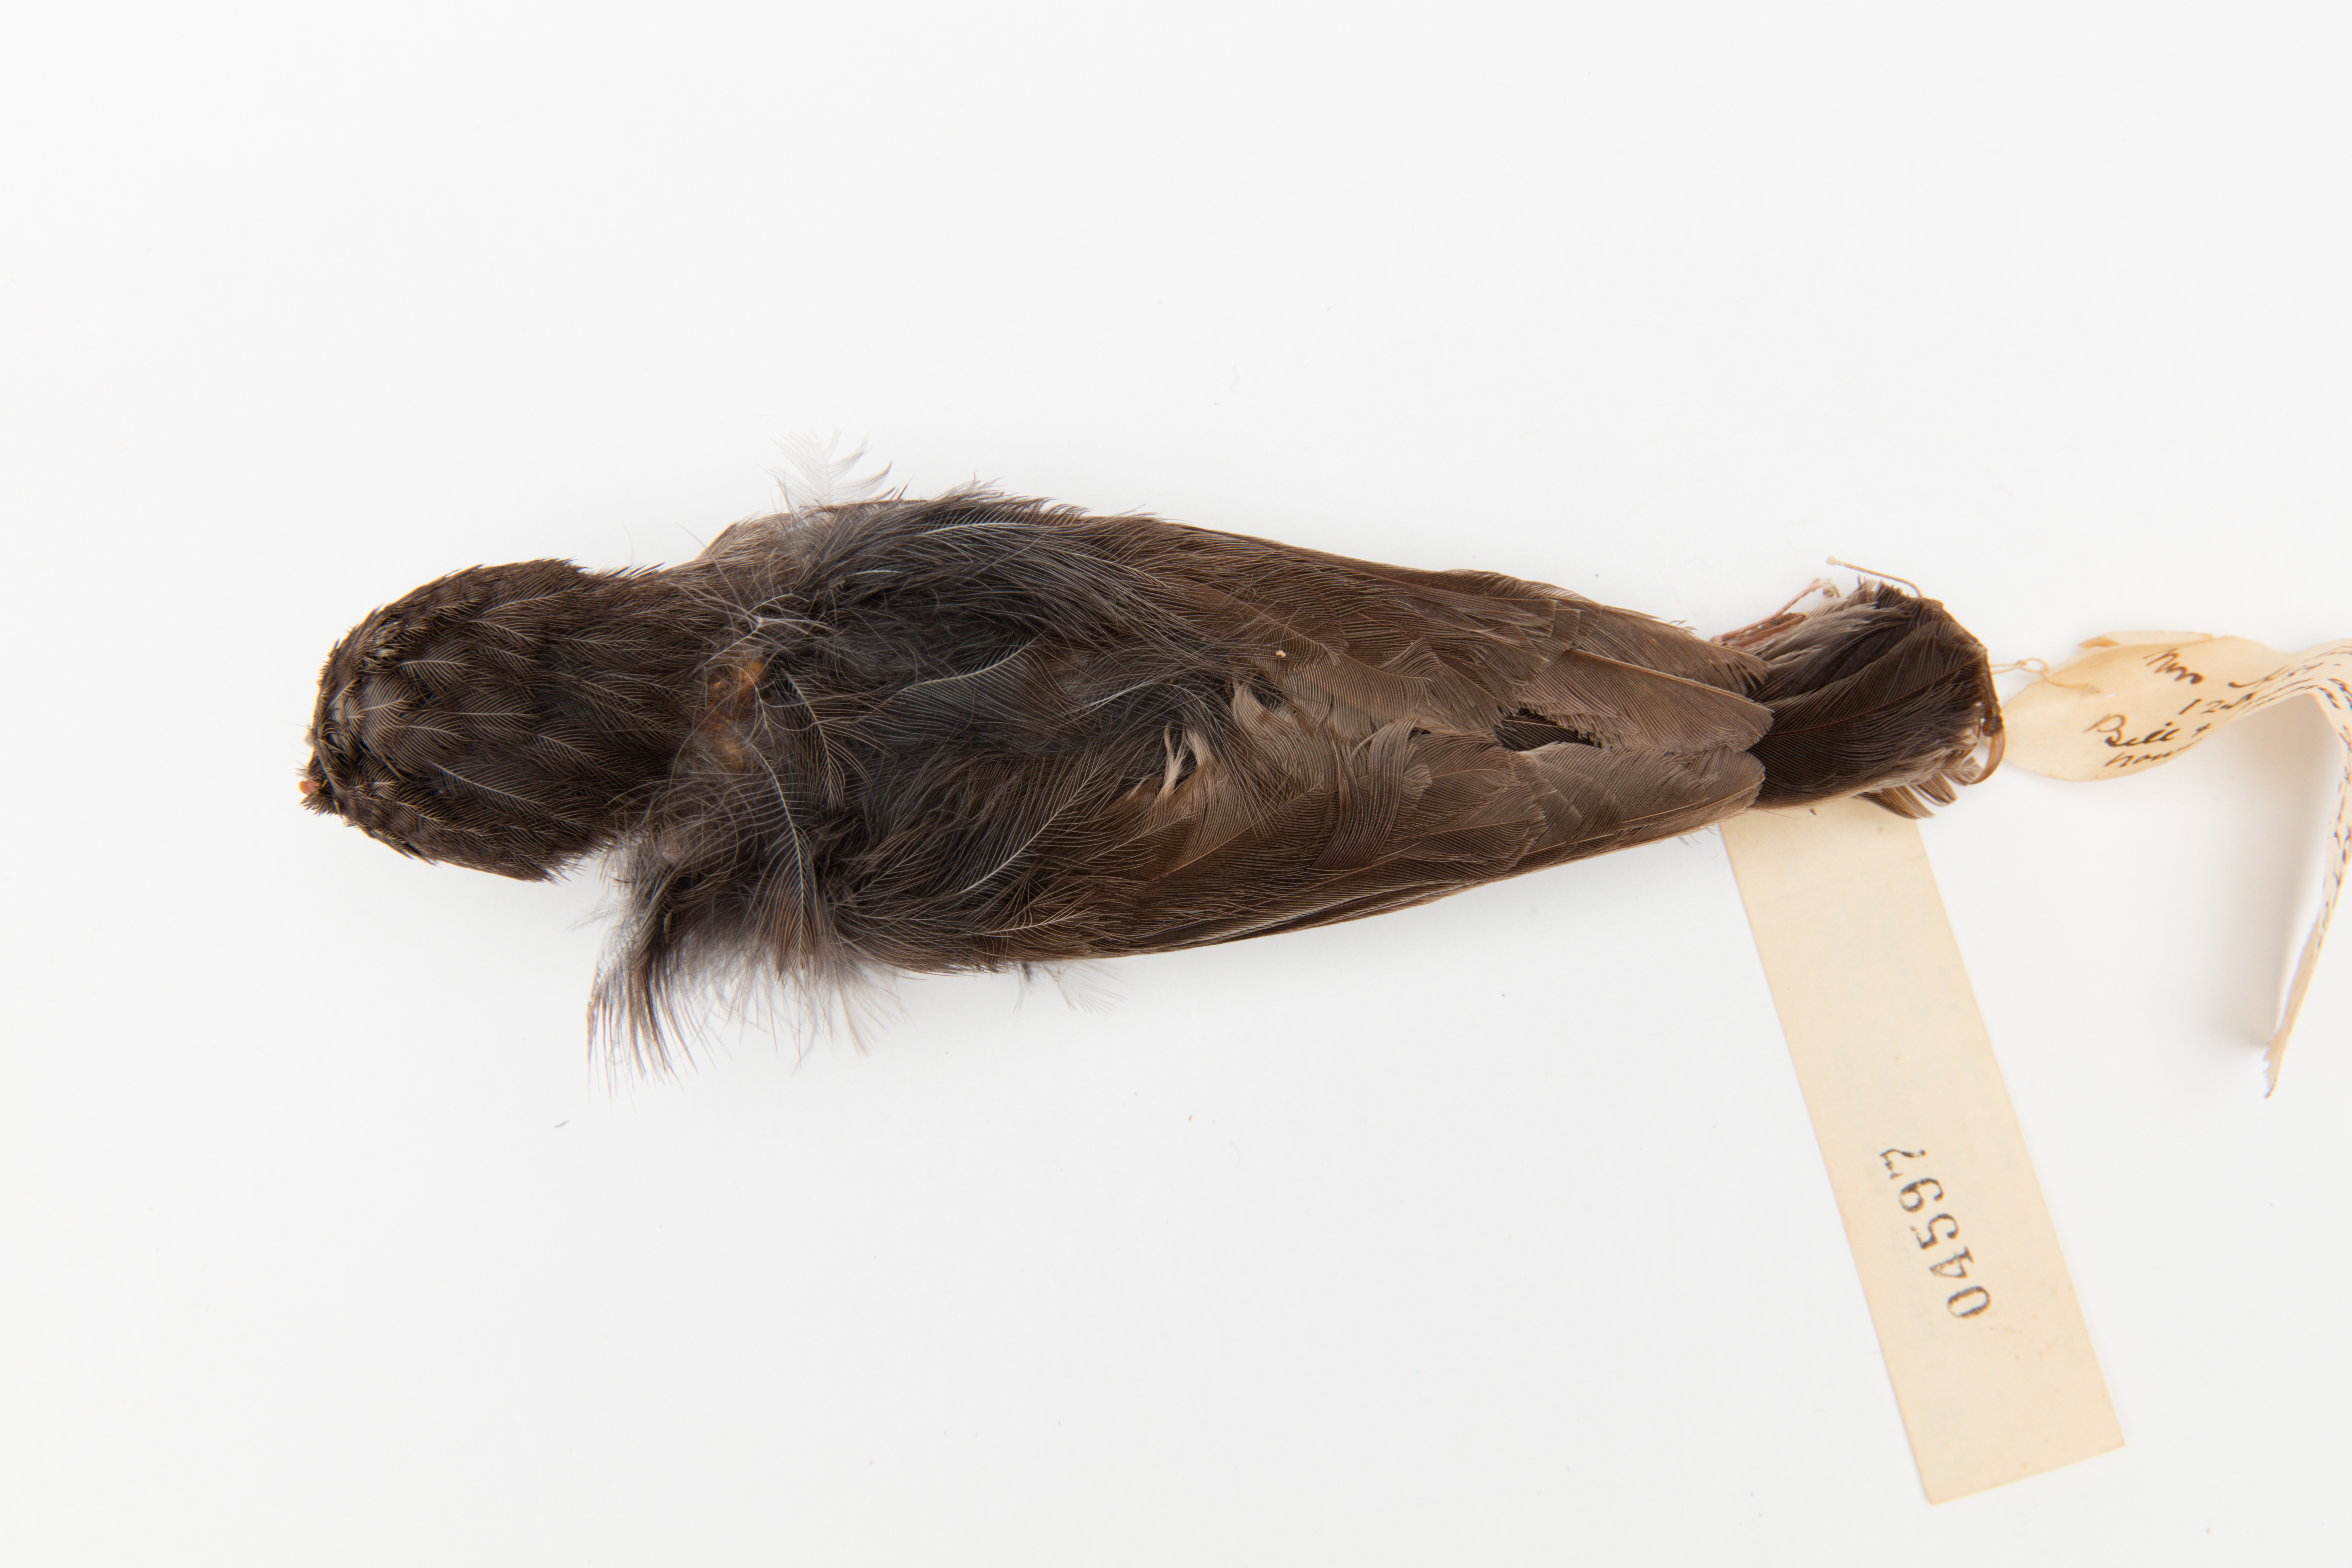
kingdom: Animalia
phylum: Chordata
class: Aves
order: Passeriformes
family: Petroicidae
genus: Petroica
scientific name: Petroica australis
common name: New zealand robin
